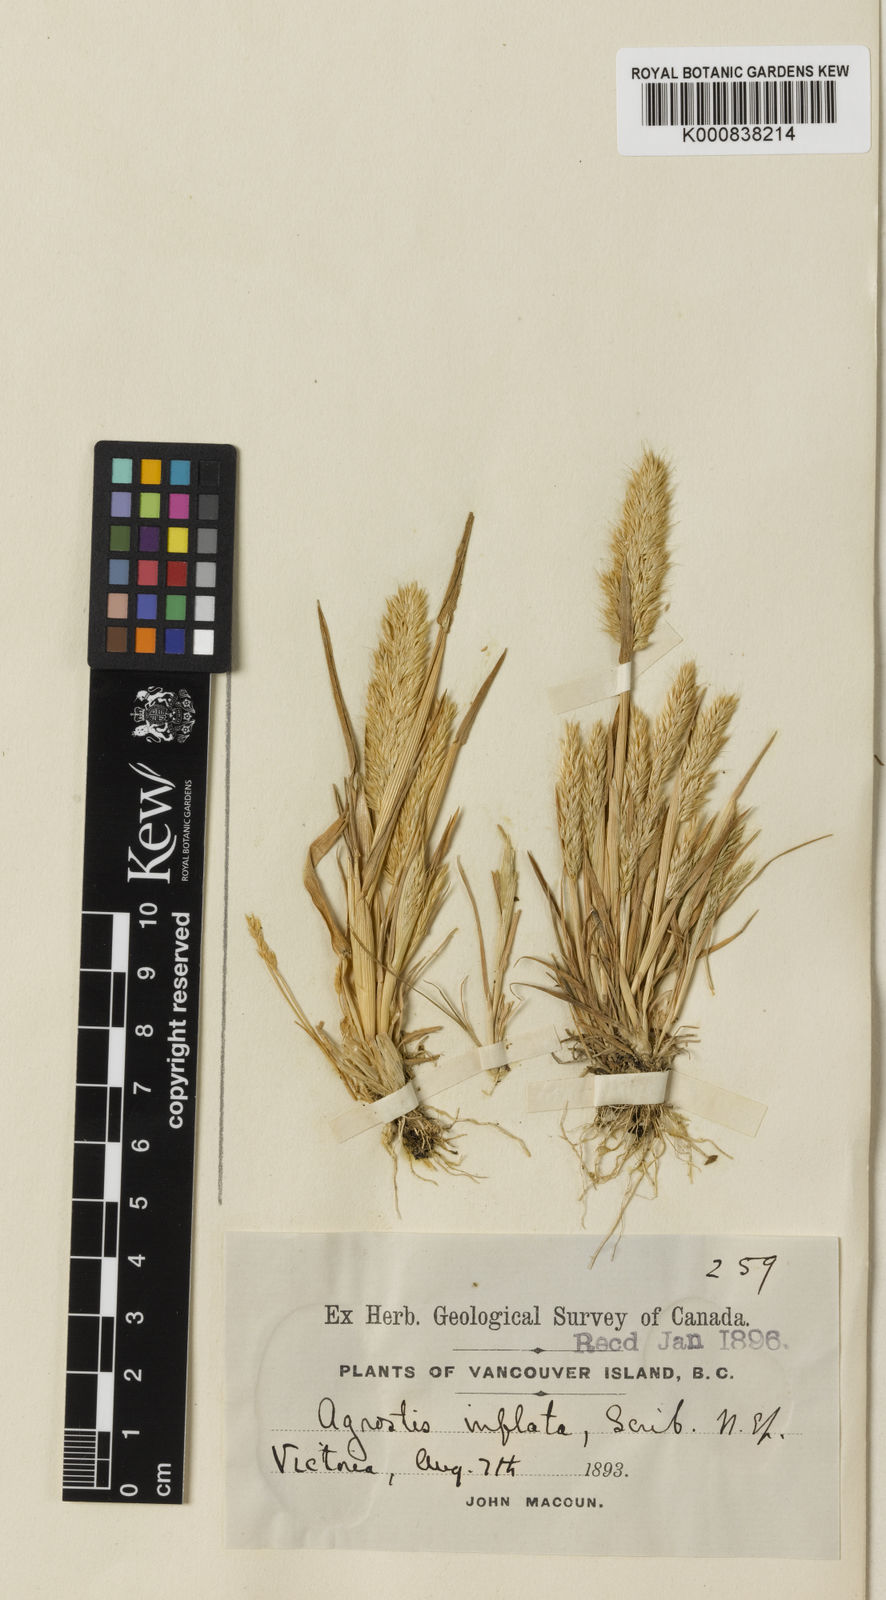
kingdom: Plantae
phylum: Tracheophyta
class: Liliopsida
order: Poales
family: Poaceae
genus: Agrostis
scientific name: Agrostis microphylla
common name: Small-leaf bent
